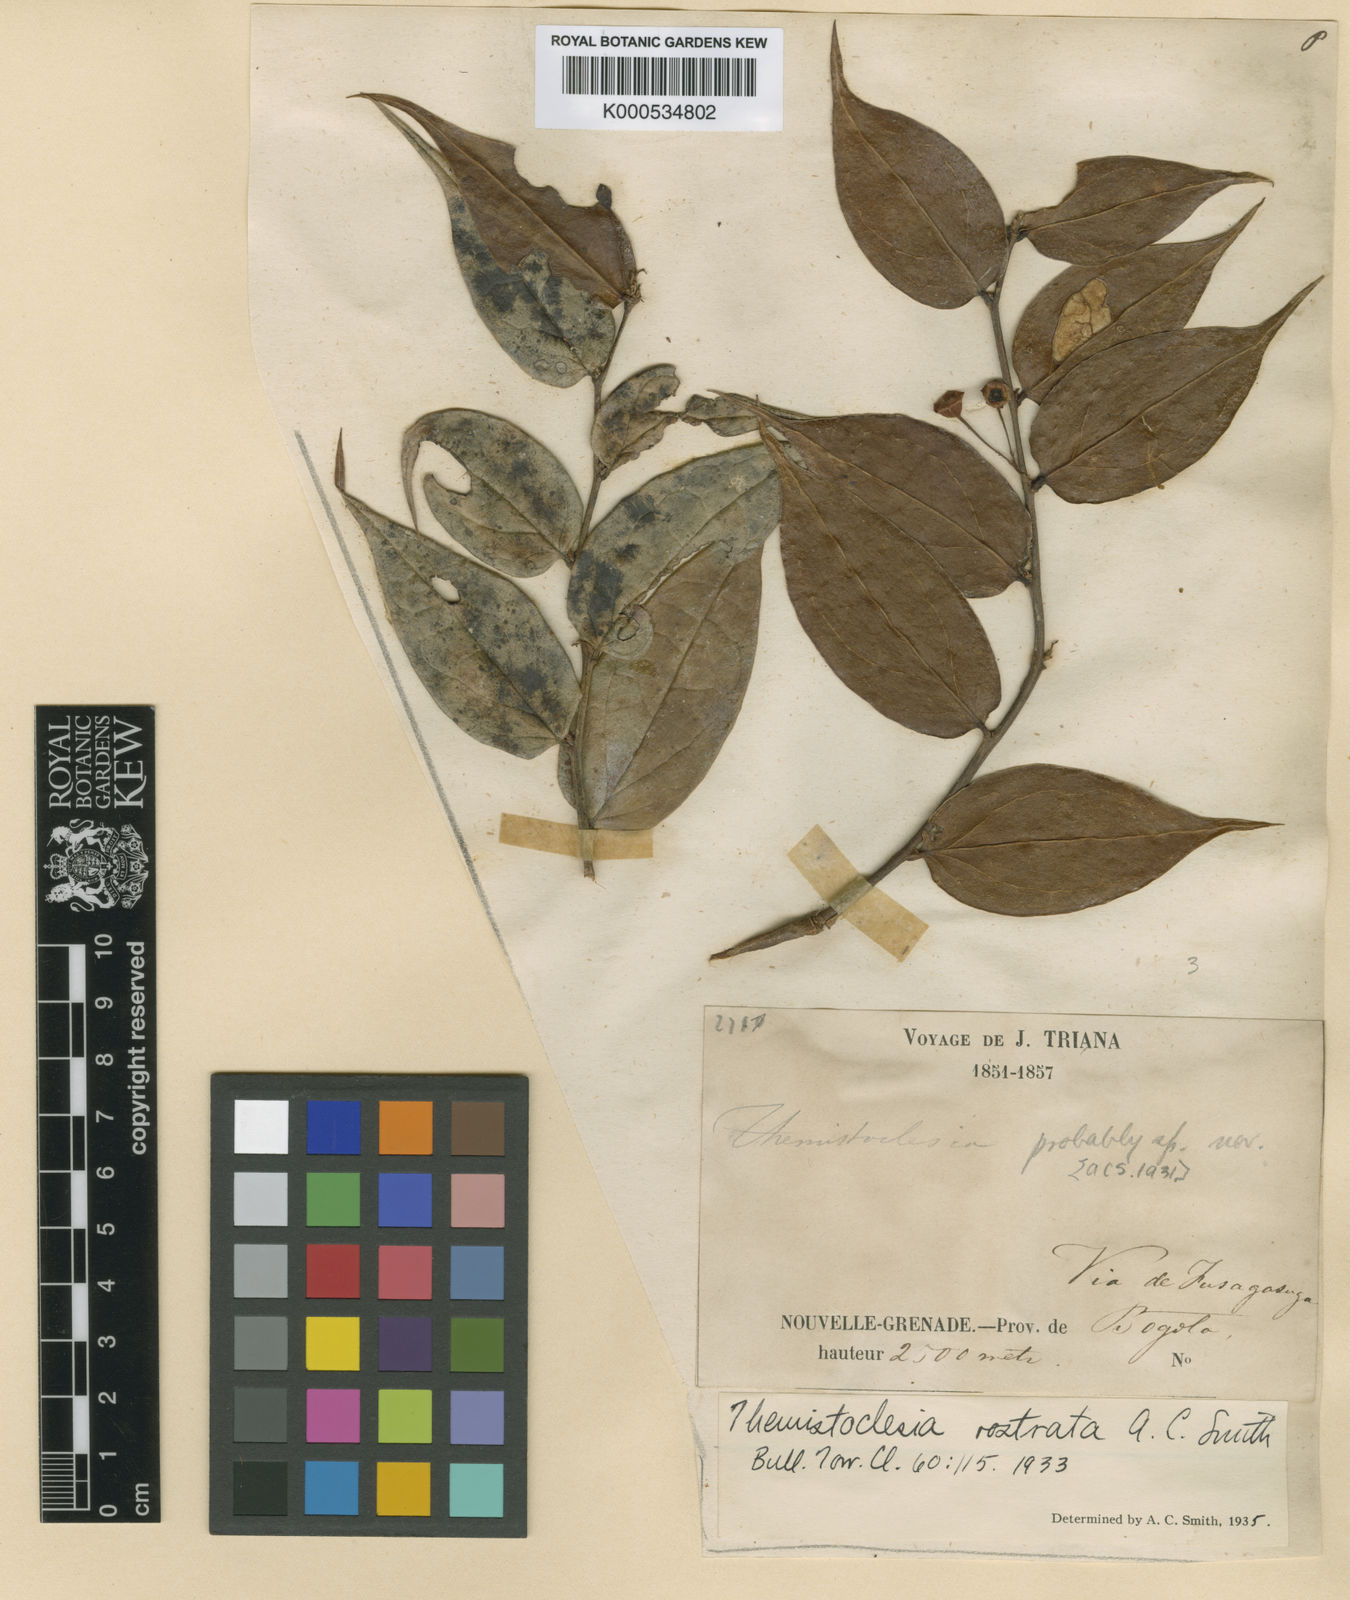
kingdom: Plantae
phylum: Tracheophyta
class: Magnoliopsida
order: Ericales
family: Ericaceae
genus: Themistoclesia
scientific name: Themistoclesia rostrata
